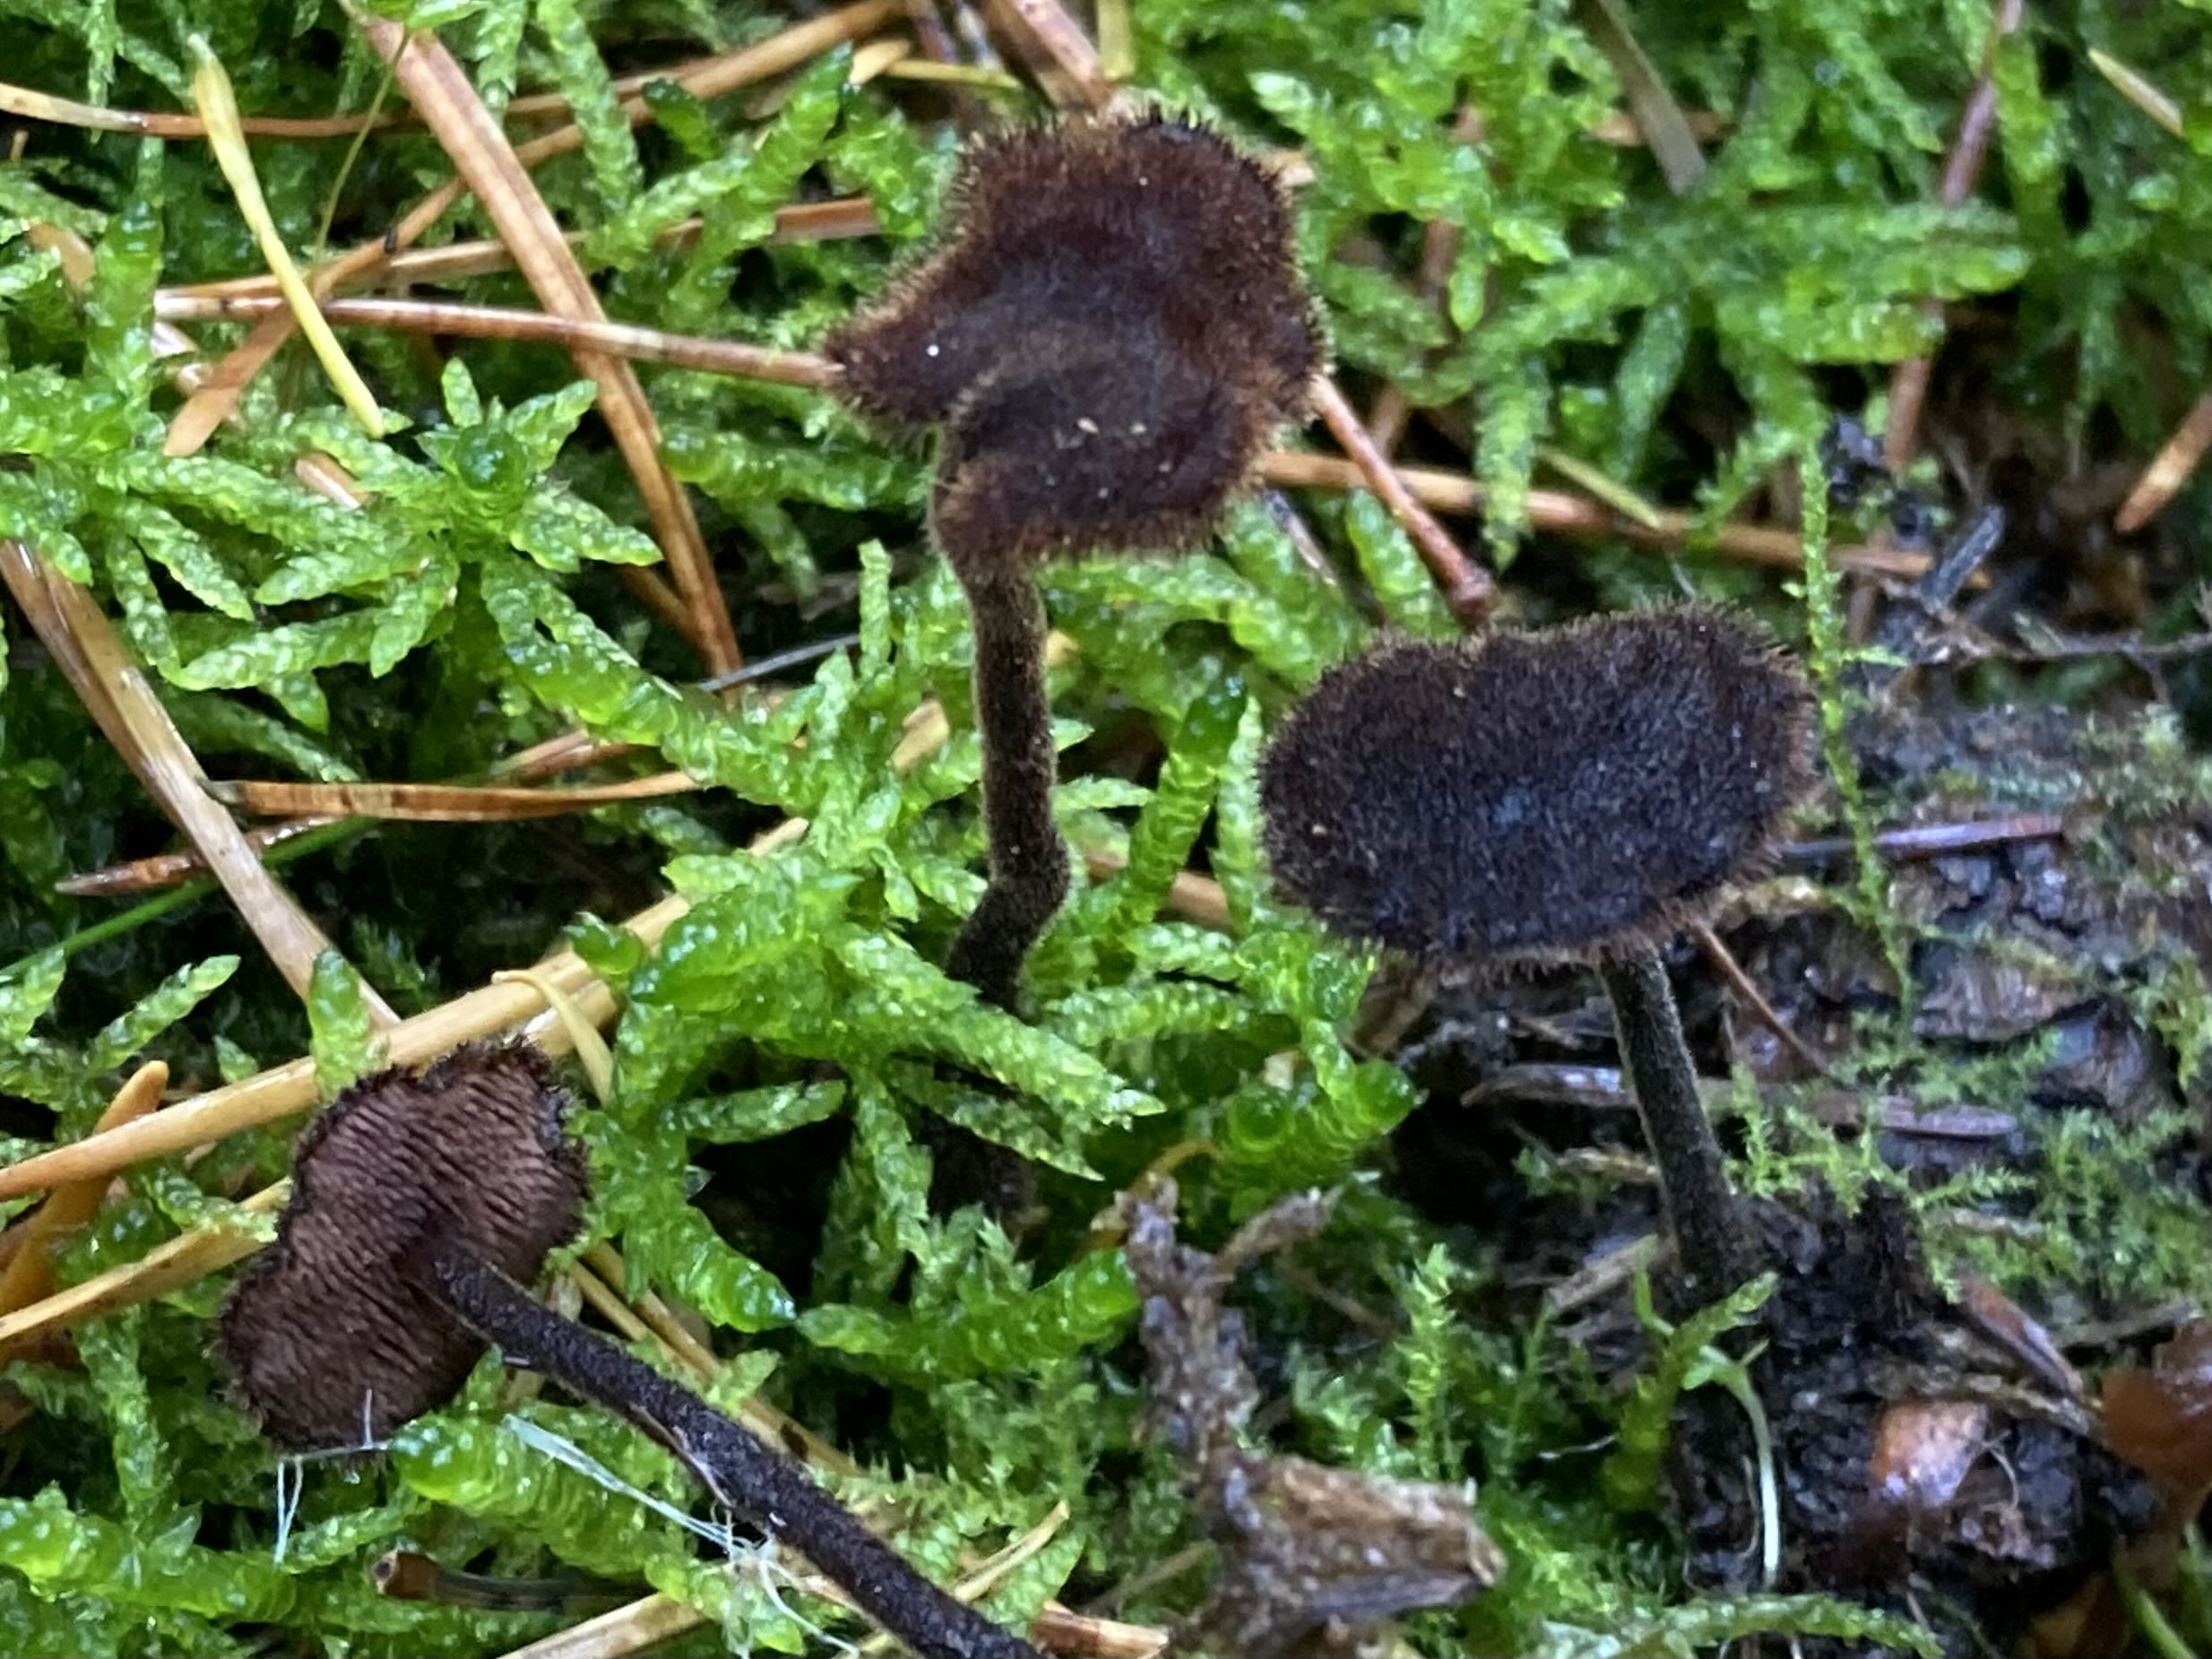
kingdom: Fungi
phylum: Basidiomycota
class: Agaricomycetes
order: Russulales
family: Auriscalpiaceae
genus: Auriscalpium
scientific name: Auriscalpium vulgare
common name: koglepigsvamp
